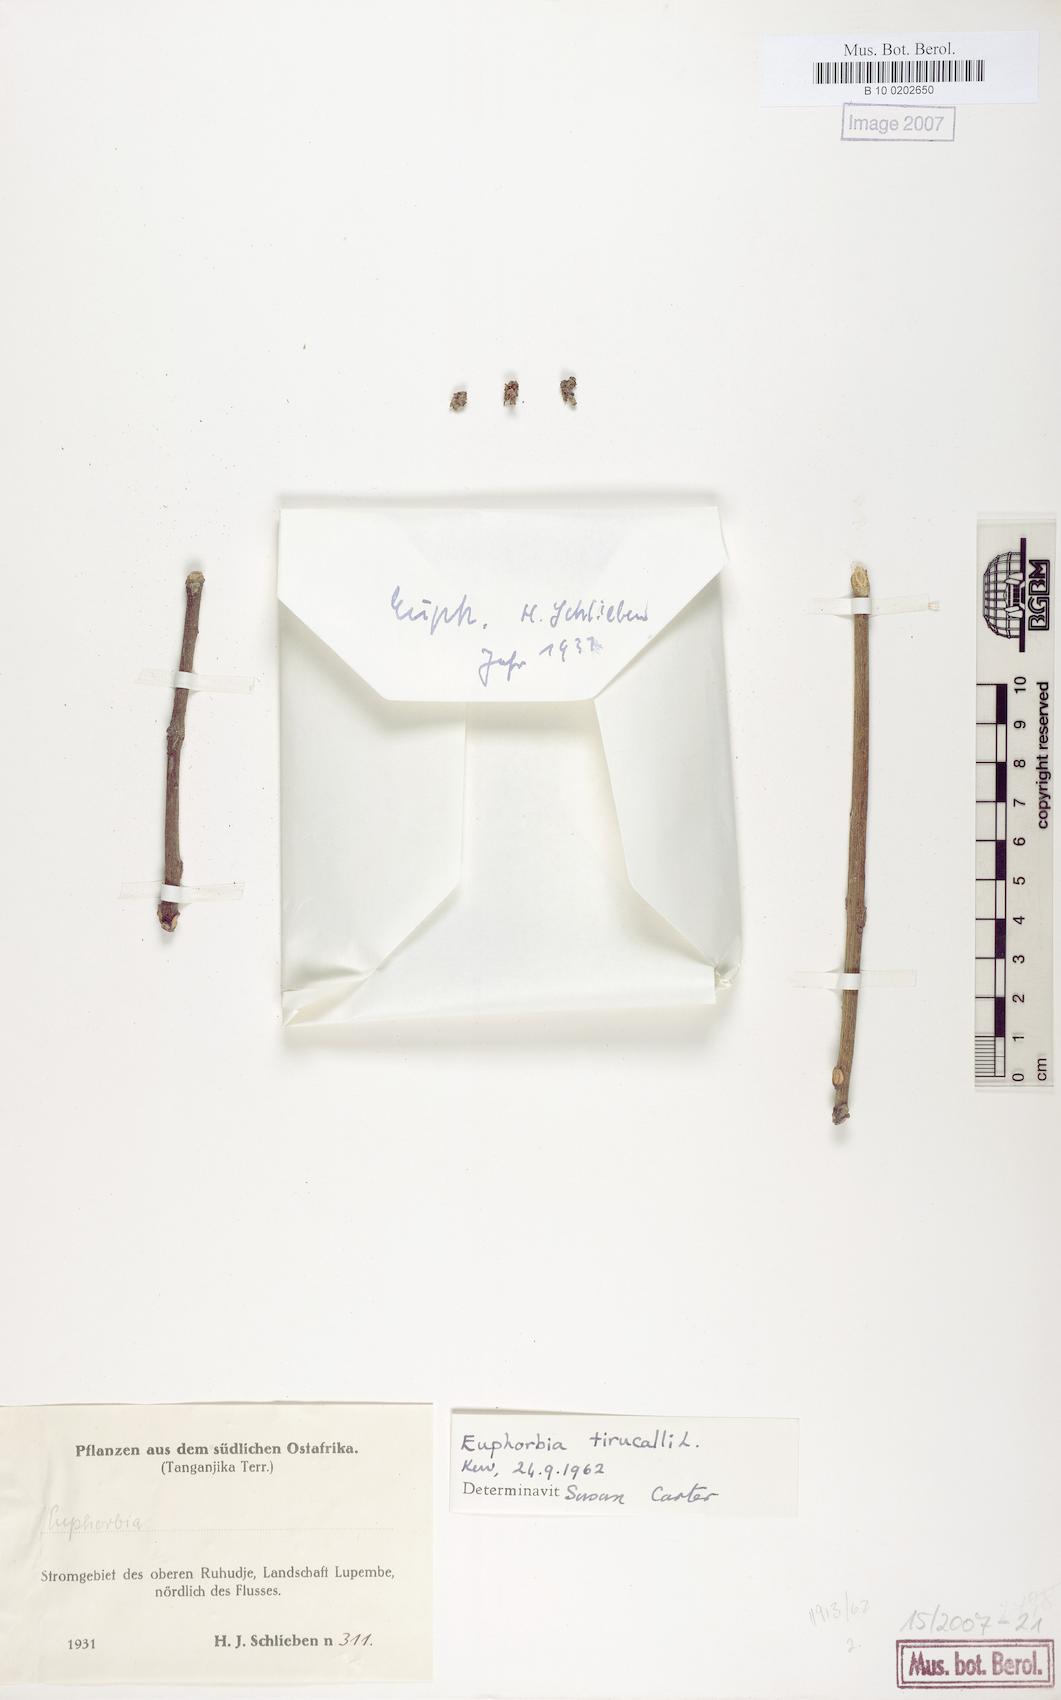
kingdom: Plantae
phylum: Tracheophyta
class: Magnoliopsida
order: Malpighiales
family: Euphorbiaceae
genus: Euphorbia
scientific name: Euphorbia tirucalli
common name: Indiantree spurge
